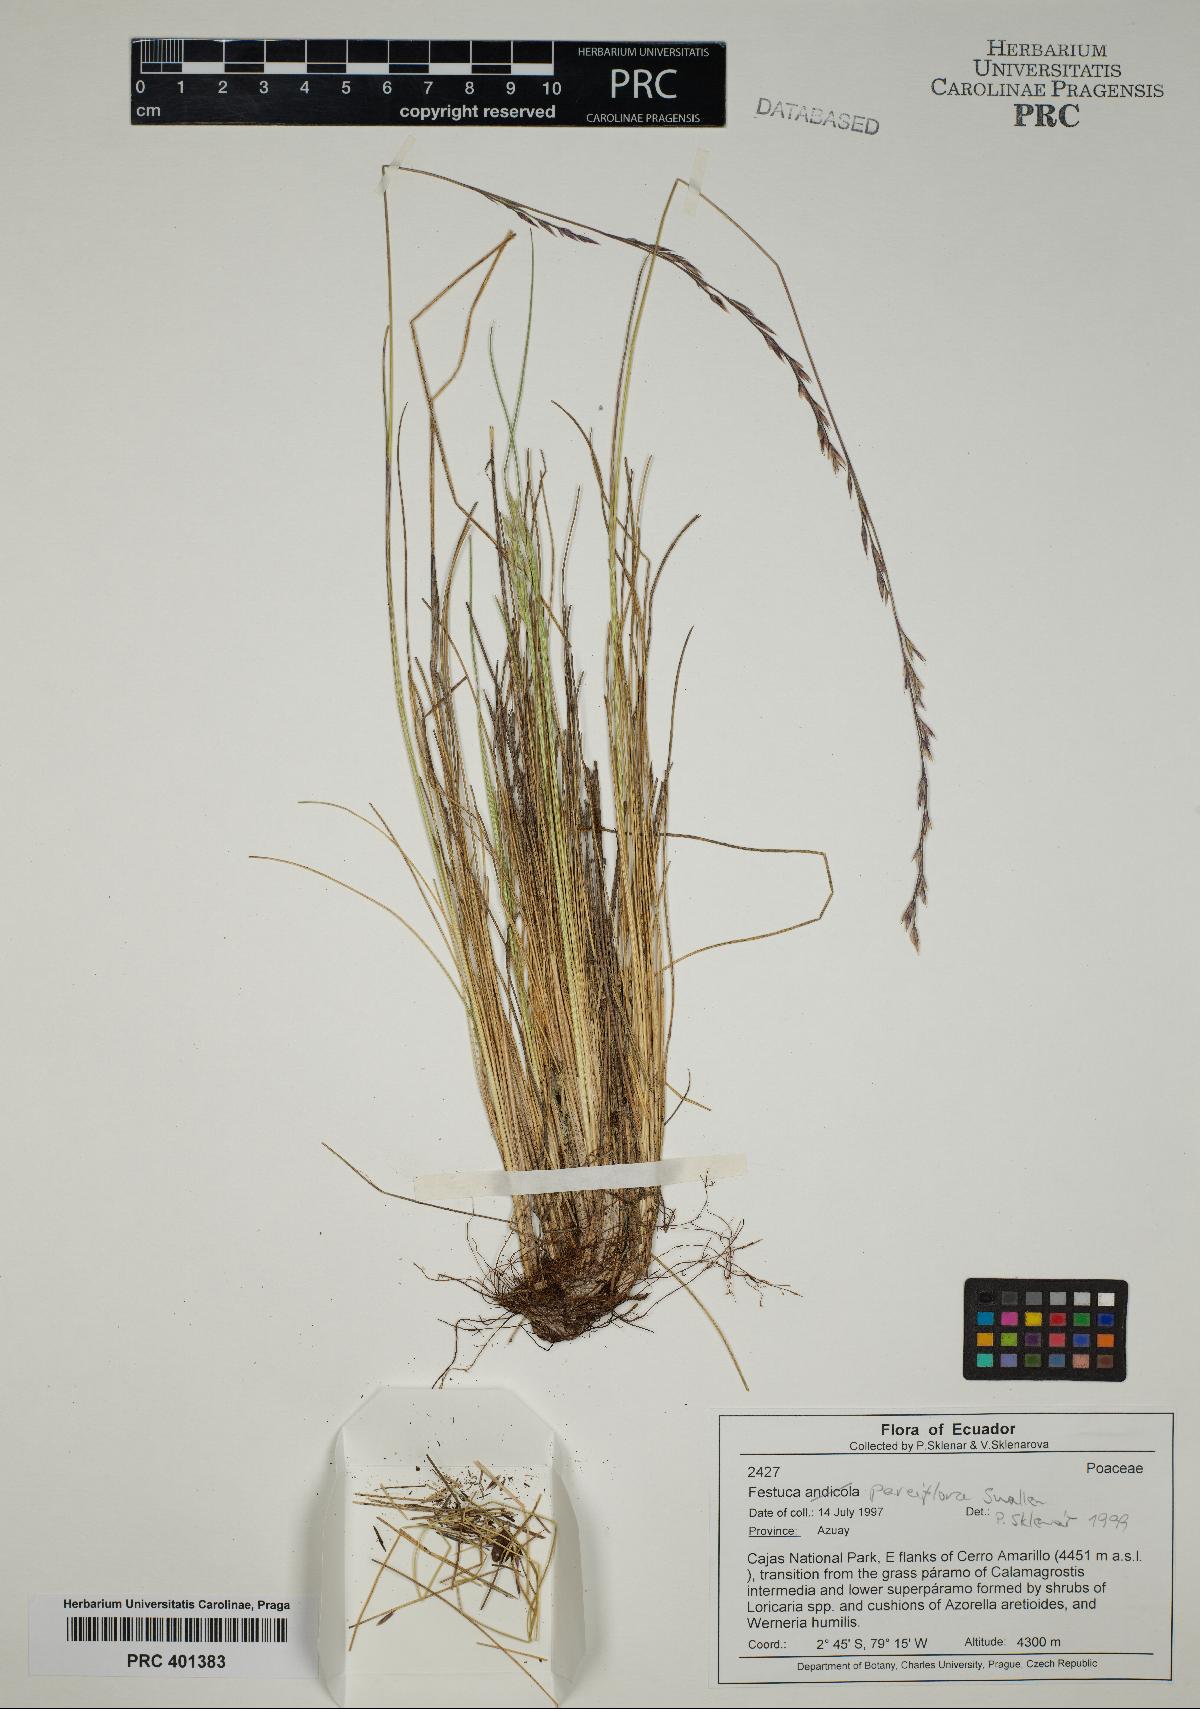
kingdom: Plantae
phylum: Tracheophyta
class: Liliopsida
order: Poales
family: Poaceae
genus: Festuca
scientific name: Festuca parciflora
